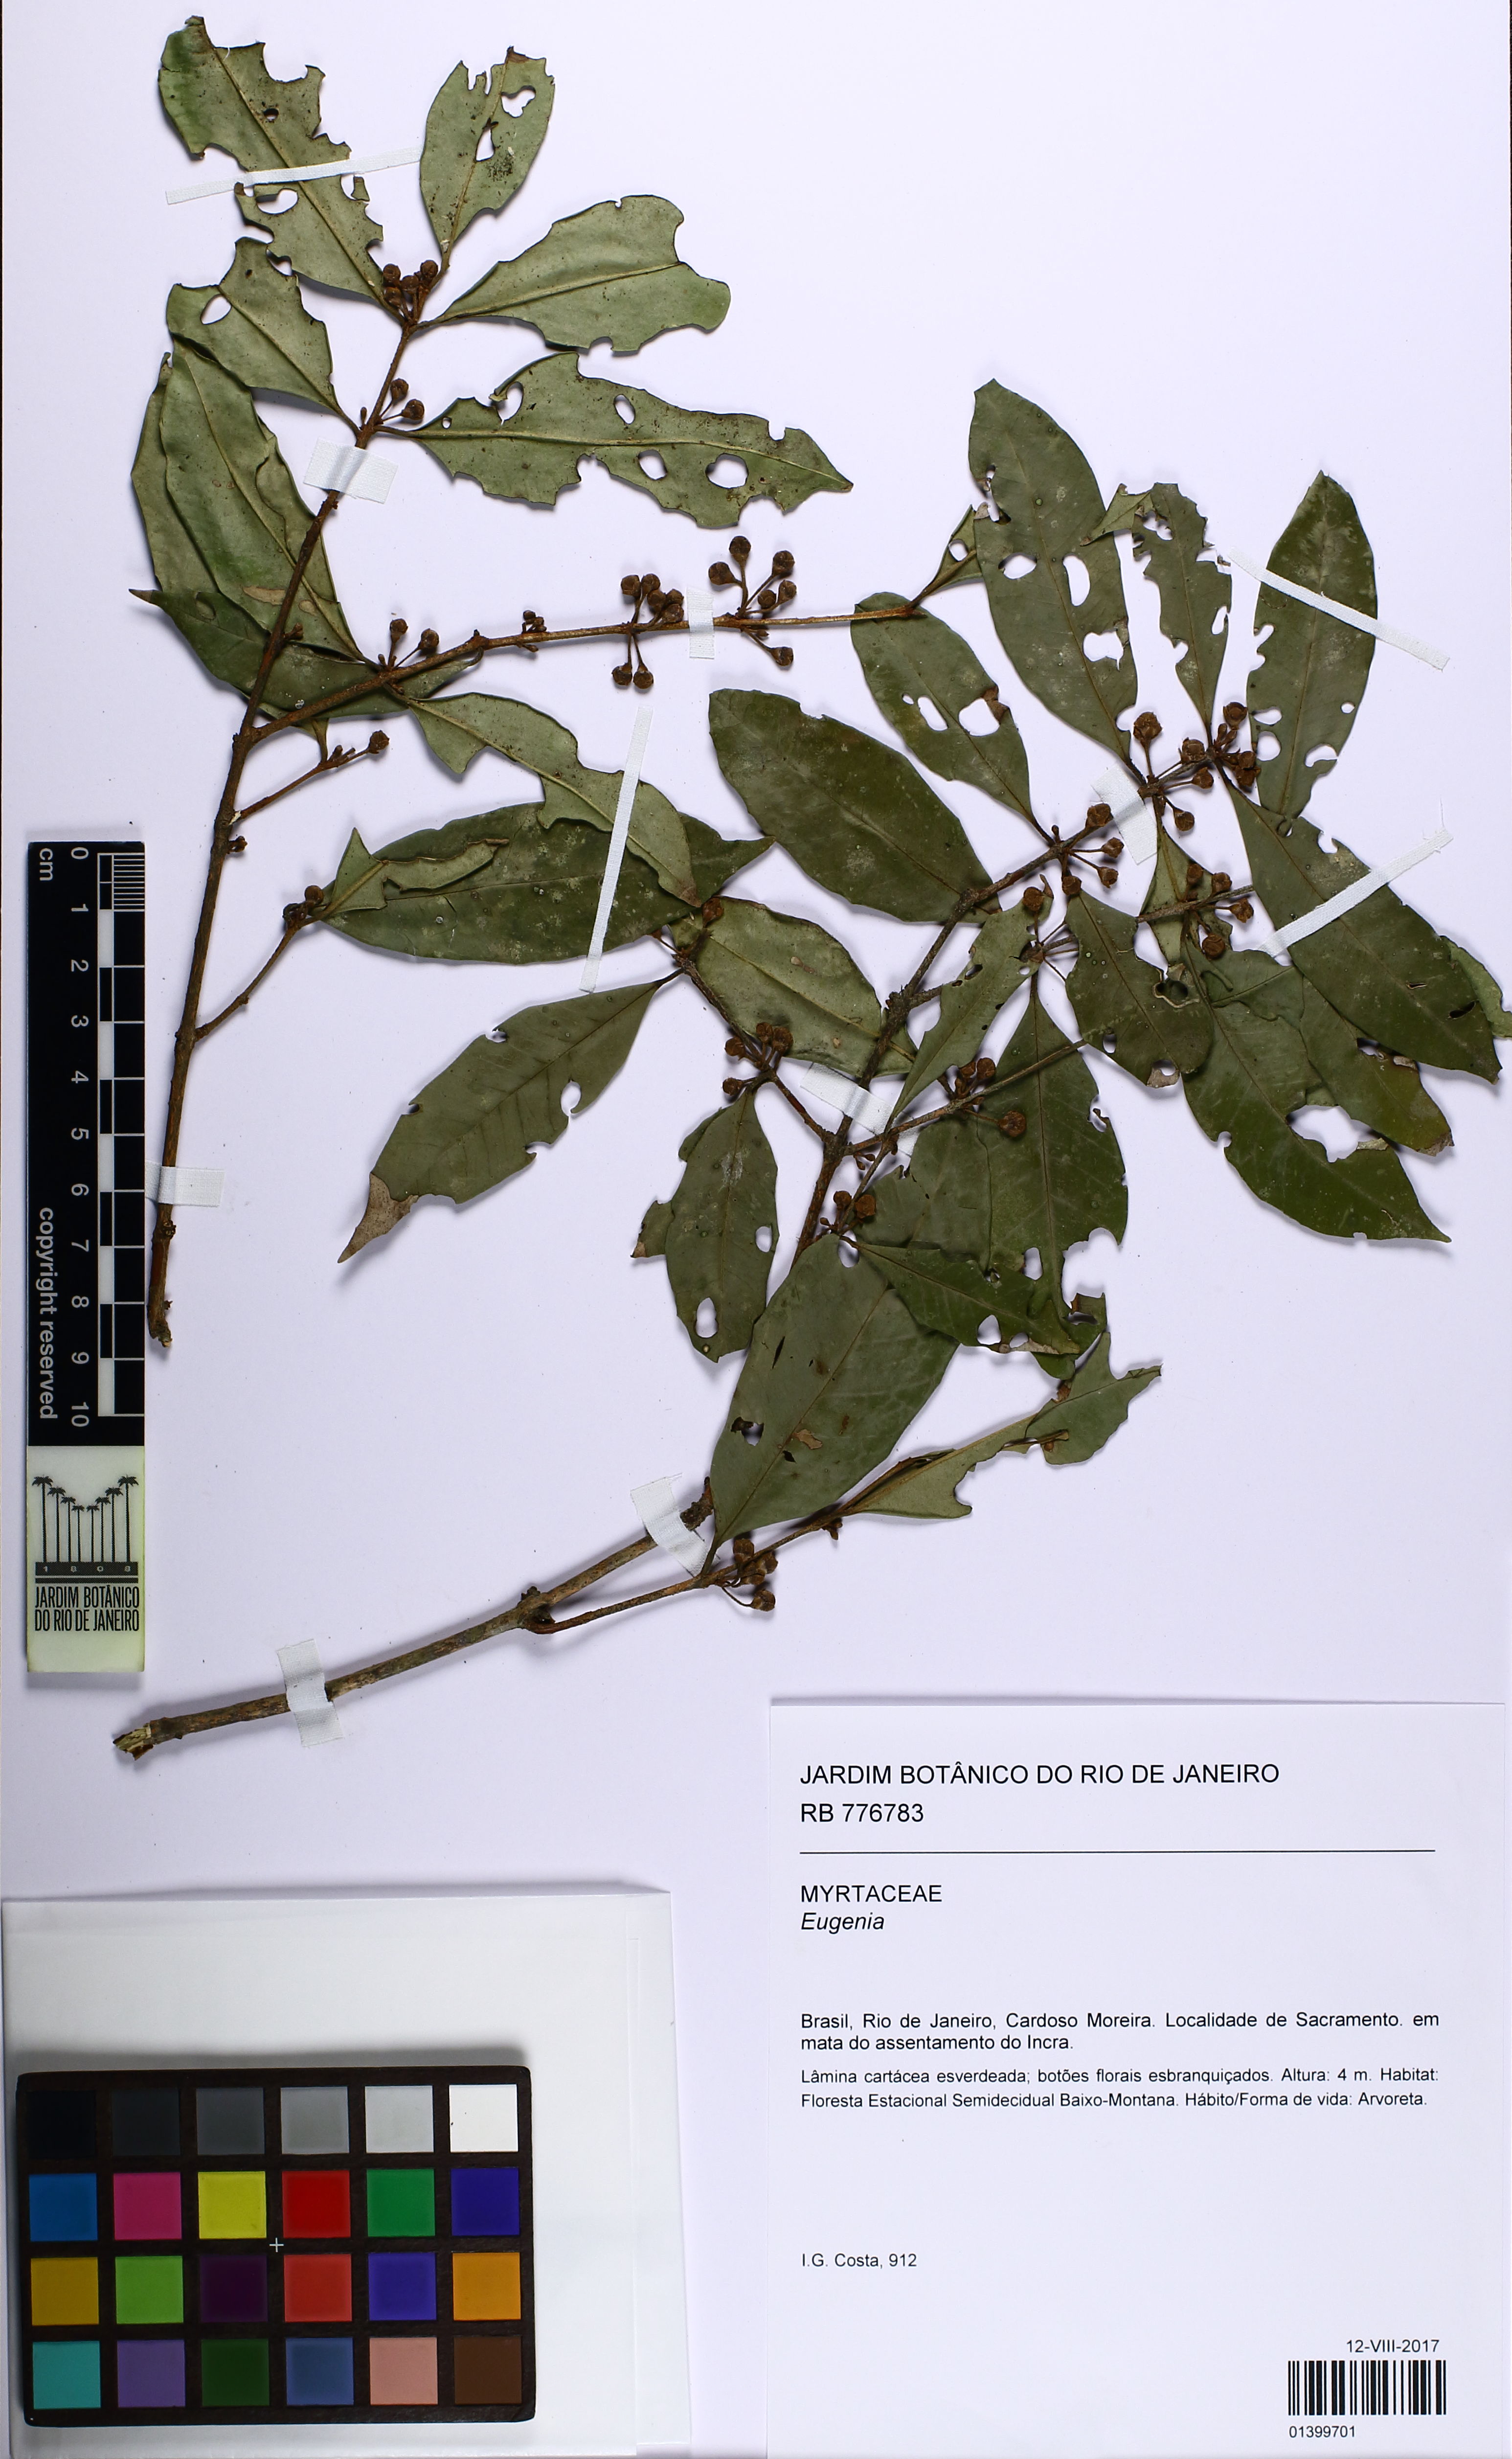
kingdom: Plantae
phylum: Tracheophyta
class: Magnoliopsida
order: Myrtales
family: Myrtaceae
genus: Eugenia
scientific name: Eugenia pisiformis
